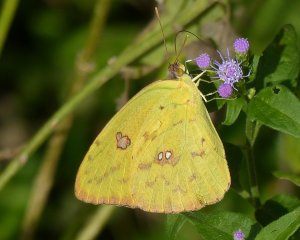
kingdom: Animalia
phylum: Arthropoda
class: Insecta
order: Lepidoptera
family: Pieridae
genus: Phoebis
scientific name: Phoebis sennae
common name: Cloudless Sulphur
